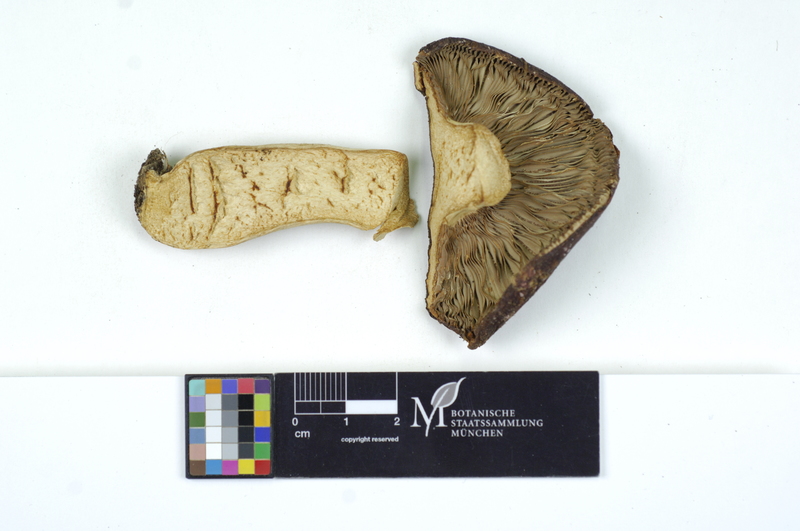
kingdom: Fungi
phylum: Basidiomycota
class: Agaricomycetes
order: Russulales
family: Russulaceae
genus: Russula
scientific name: Russula badia
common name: Burning brittlegill
